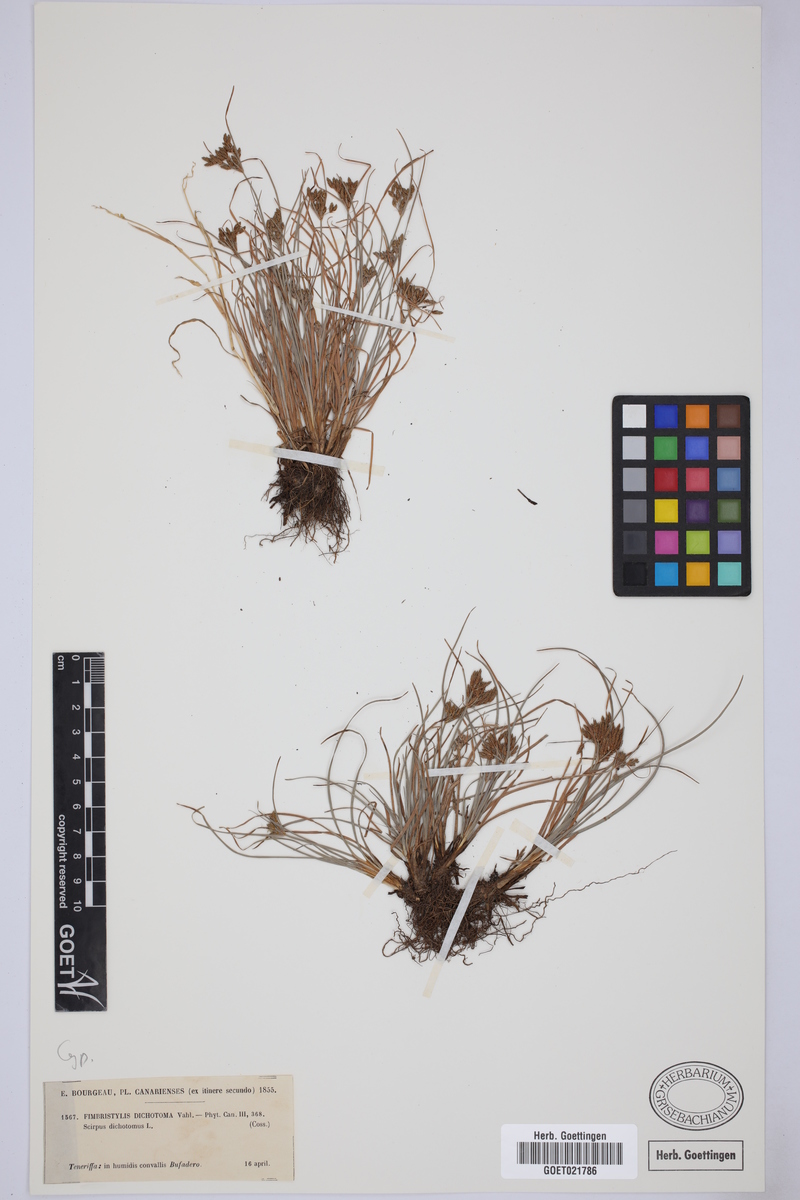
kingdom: Plantae
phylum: Tracheophyta
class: Liliopsida
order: Poales
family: Cyperaceae
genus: Fimbristylis
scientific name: Fimbristylis dichotoma
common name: Forked fimbry
